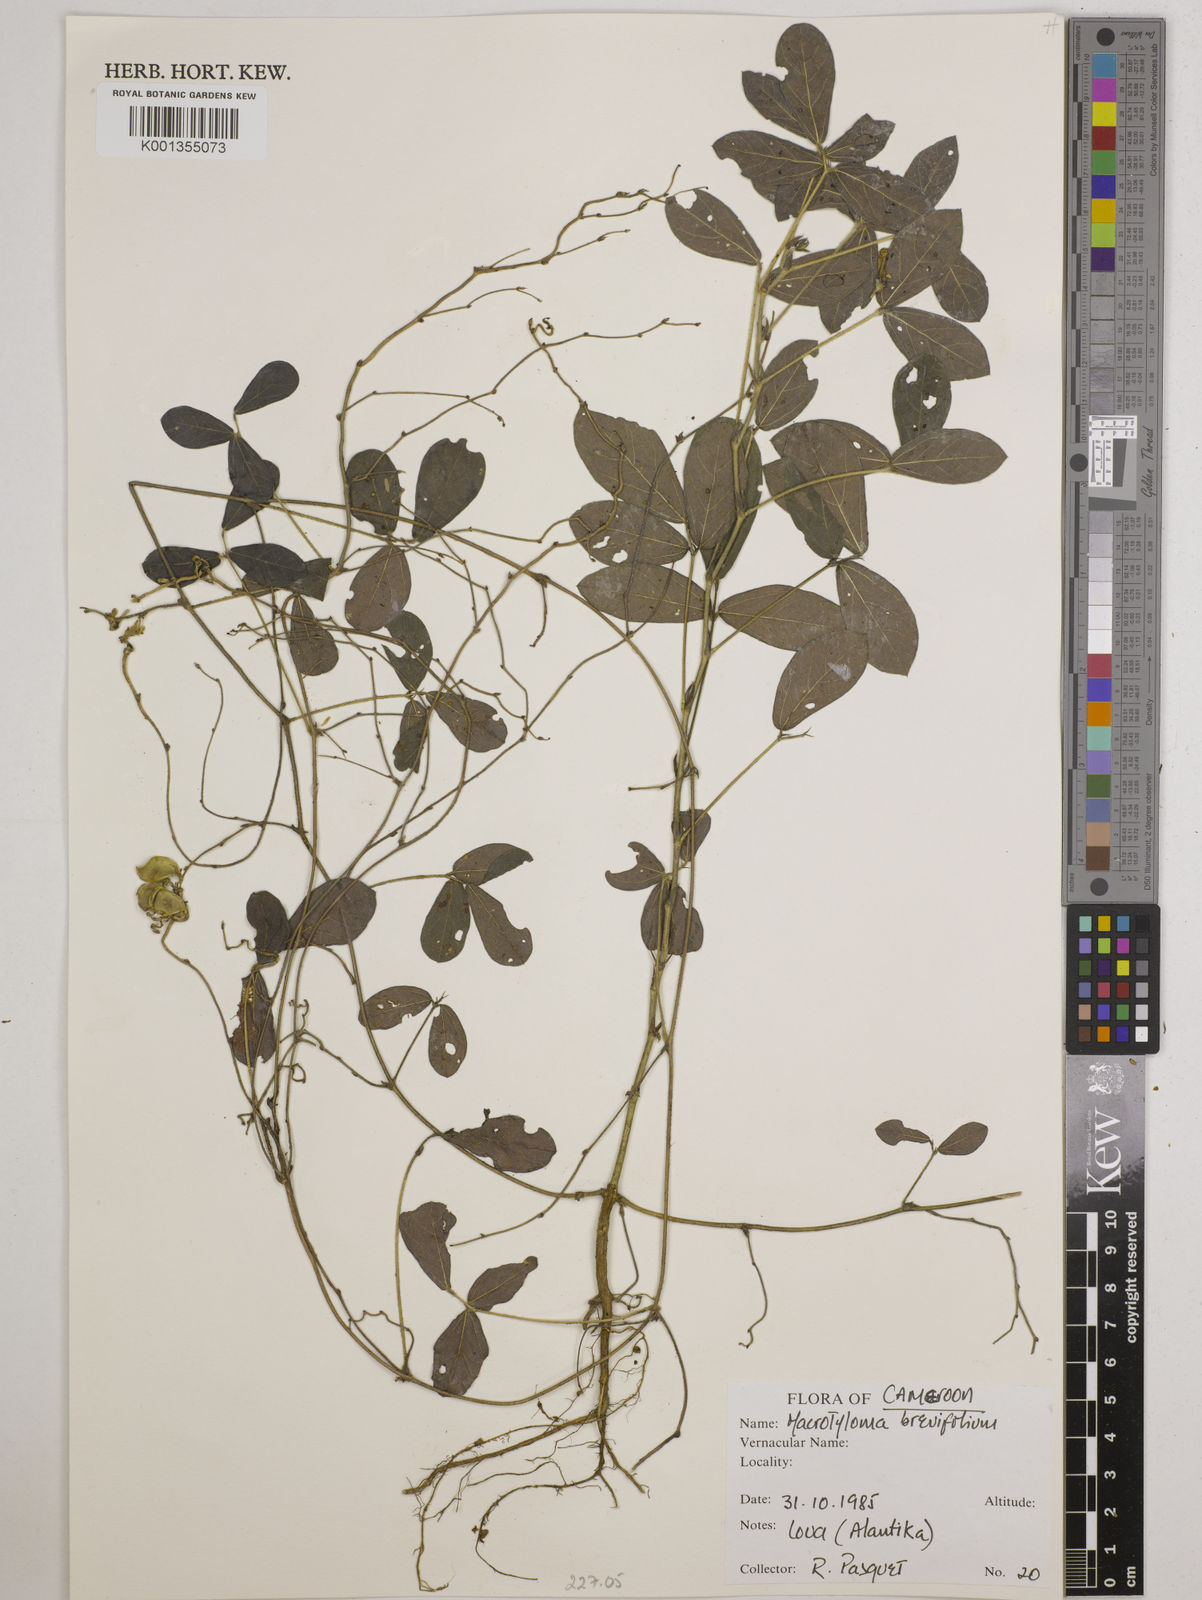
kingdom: Plantae
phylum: Tracheophyta
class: Magnoliopsida
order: Fabales
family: Fabaceae
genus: Macrotyloma
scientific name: Macrotyloma brevicaule
